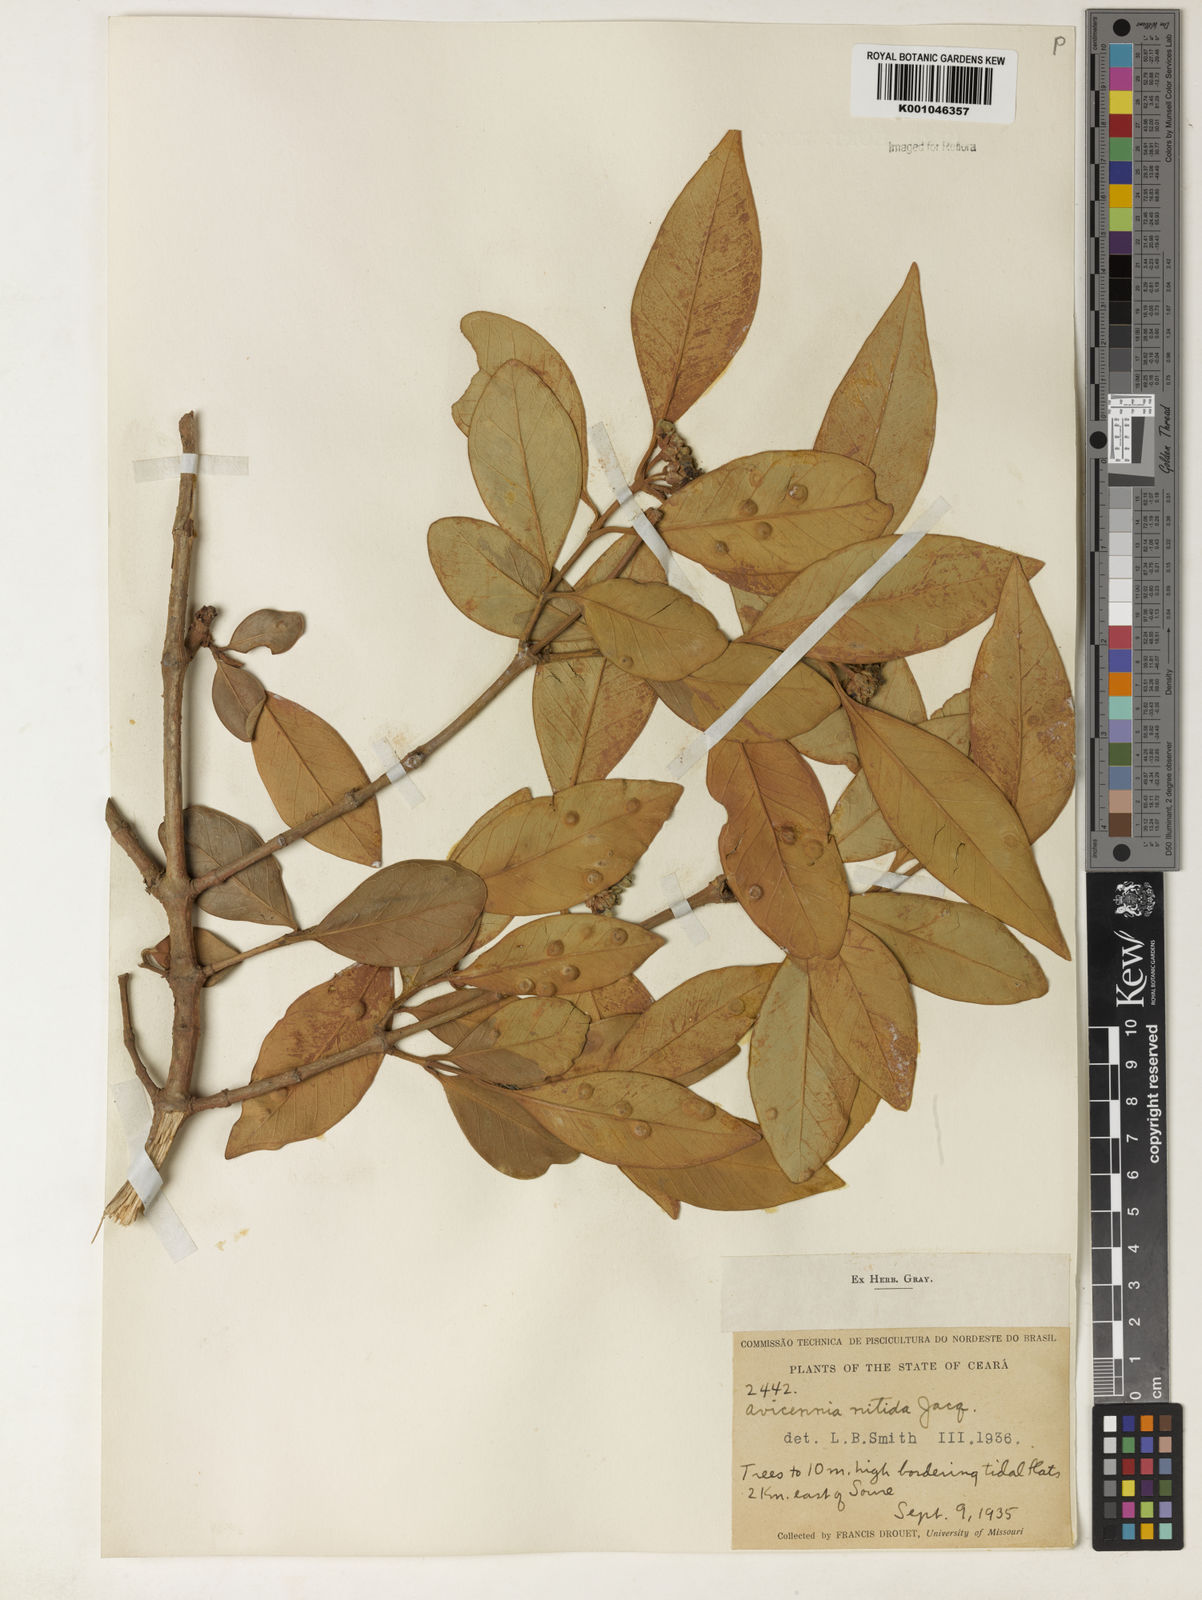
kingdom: Plantae
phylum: Tracheophyta
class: Magnoliopsida
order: Lamiales
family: Acanthaceae
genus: Avicennia
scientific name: Avicennia germinans
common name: Black mangrove
